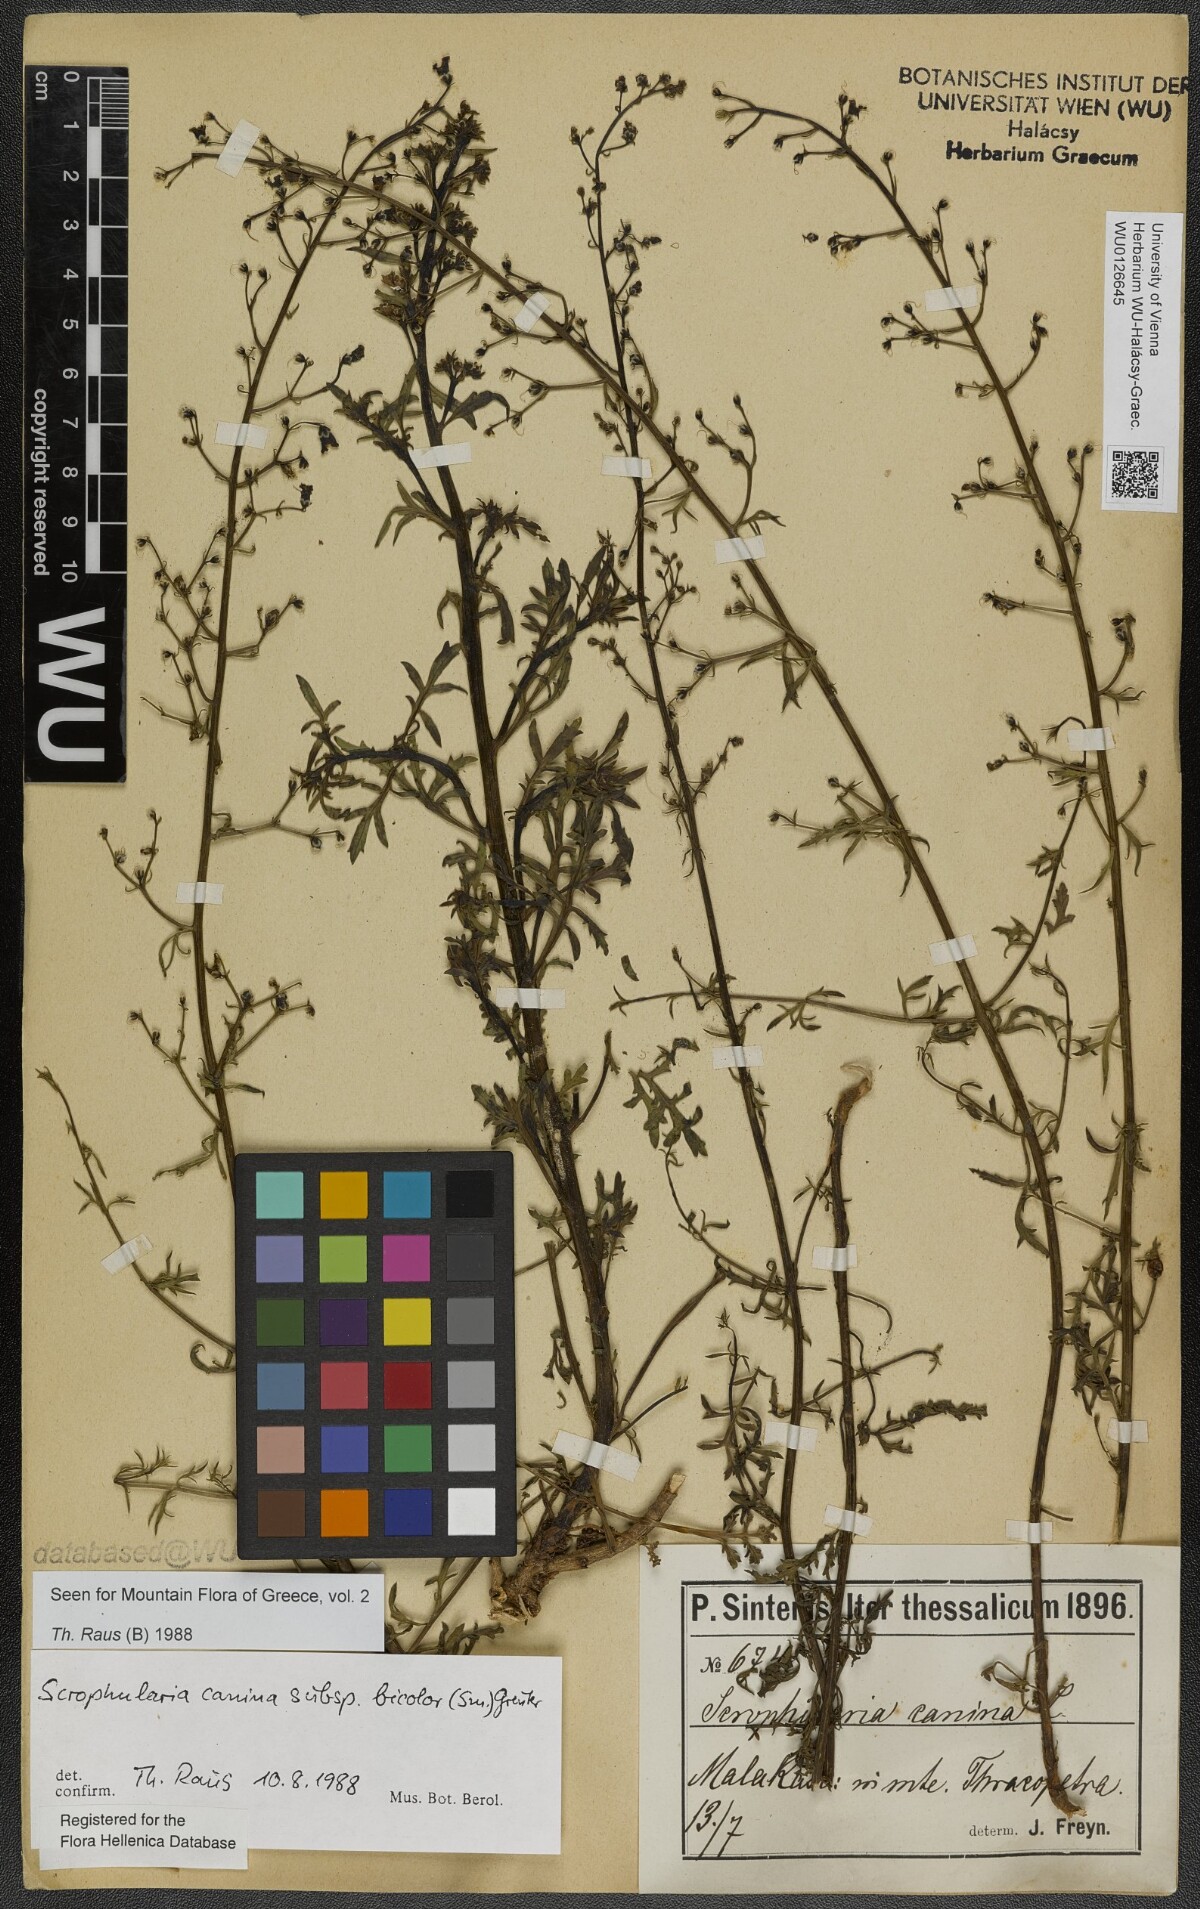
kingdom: Plantae
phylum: Tracheophyta
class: Magnoliopsida
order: Lamiales
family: Scrophulariaceae
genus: Scrophularia
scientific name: Scrophularia canina
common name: French figwort
